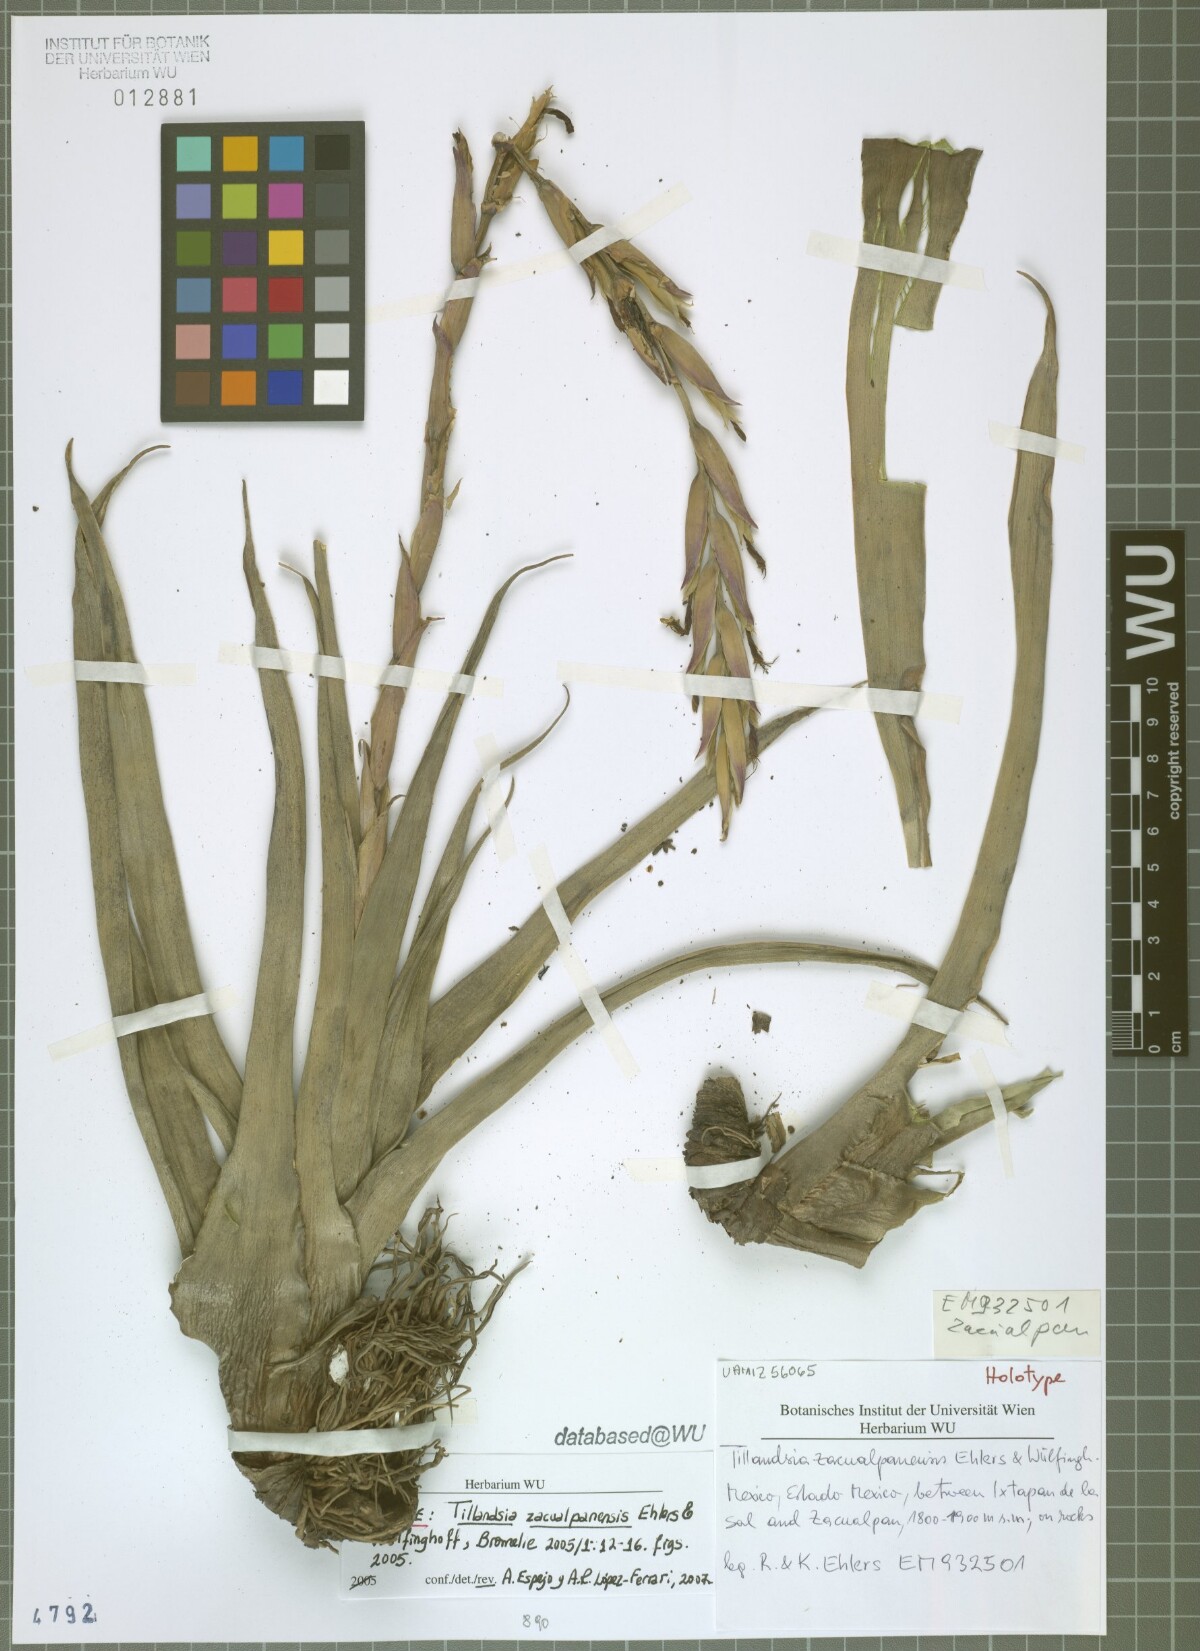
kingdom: Plantae
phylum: Tracheophyta
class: Liliopsida
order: Poales
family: Bromeliaceae
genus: Tillandsia
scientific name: Tillandsia zacualpanensis
